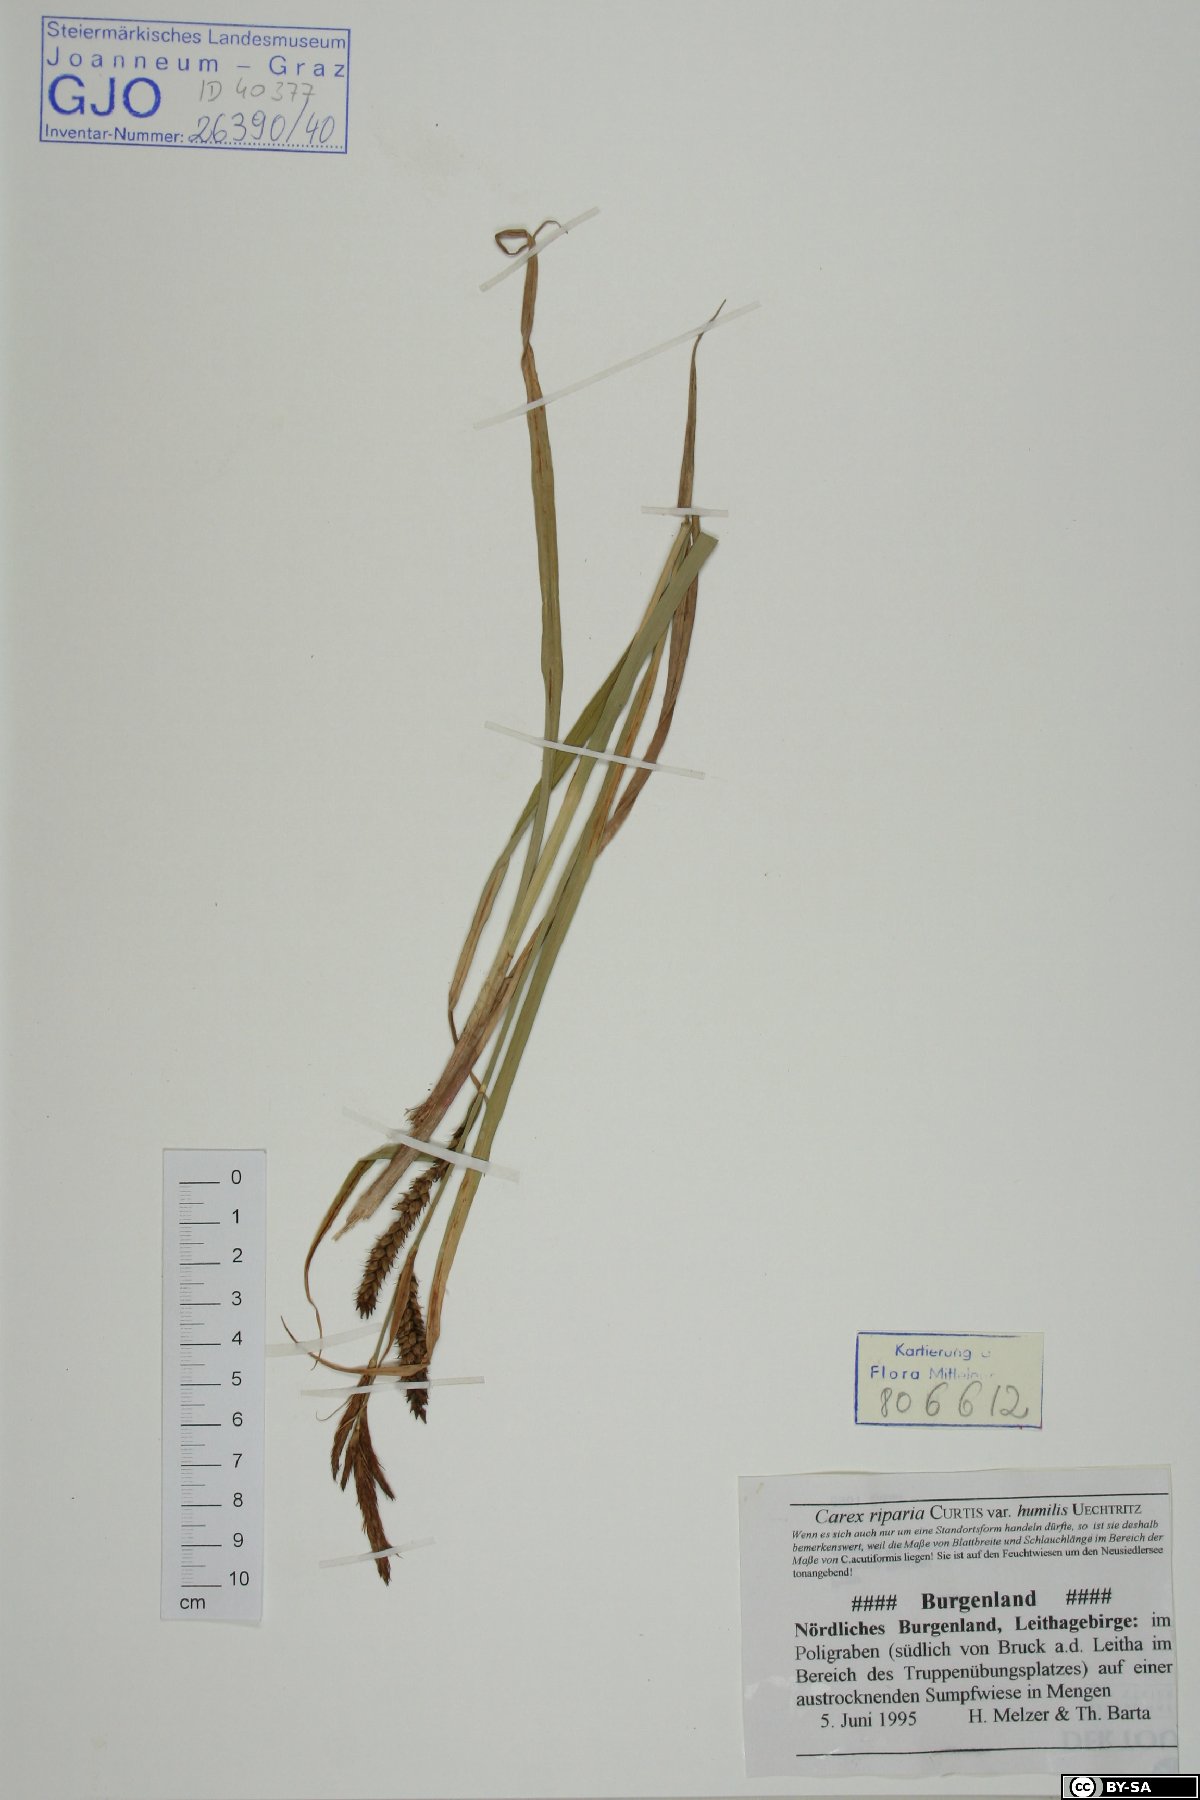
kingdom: Plantae
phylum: Tracheophyta
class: Liliopsida
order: Poales
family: Cyperaceae
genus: Carex
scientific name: Carex riparia
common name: Greater pond-sedge
